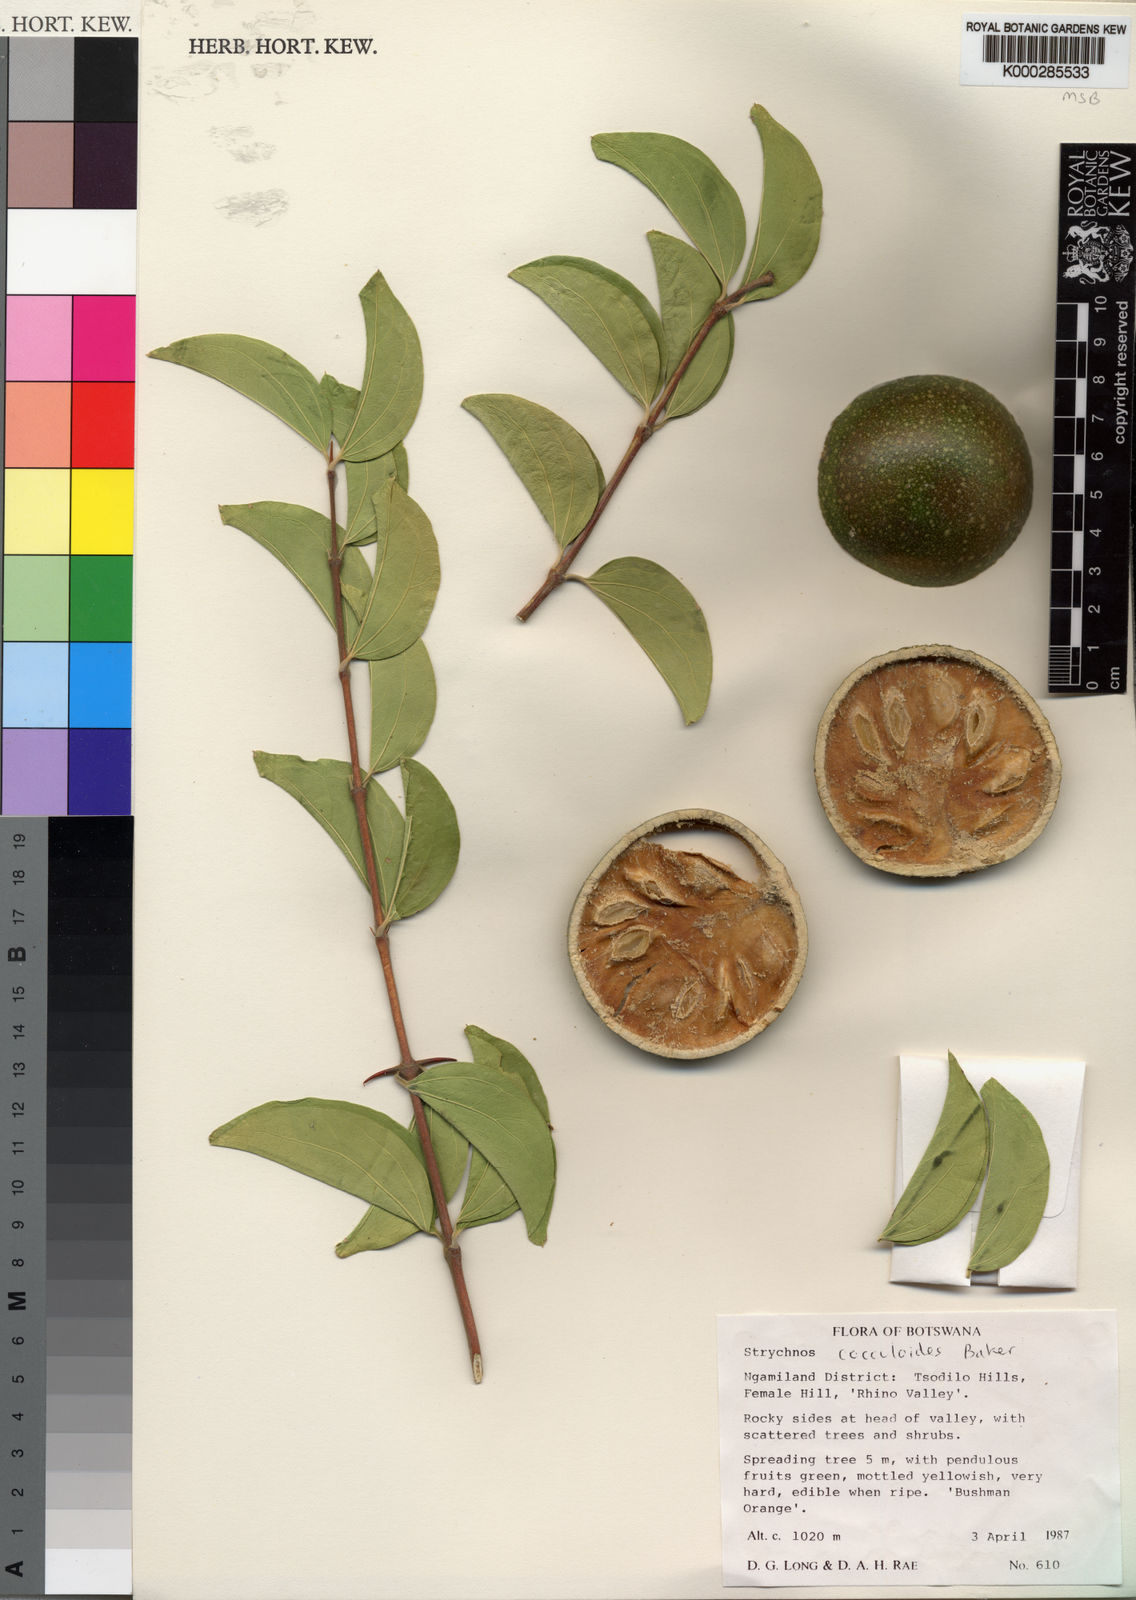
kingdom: Plantae
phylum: Tracheophyta
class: Magnoliopsida
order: Gentianales
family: Loganiaceae
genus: Strychnos
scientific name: Strychnos cocculoides
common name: Corky-bark monkey-orange
